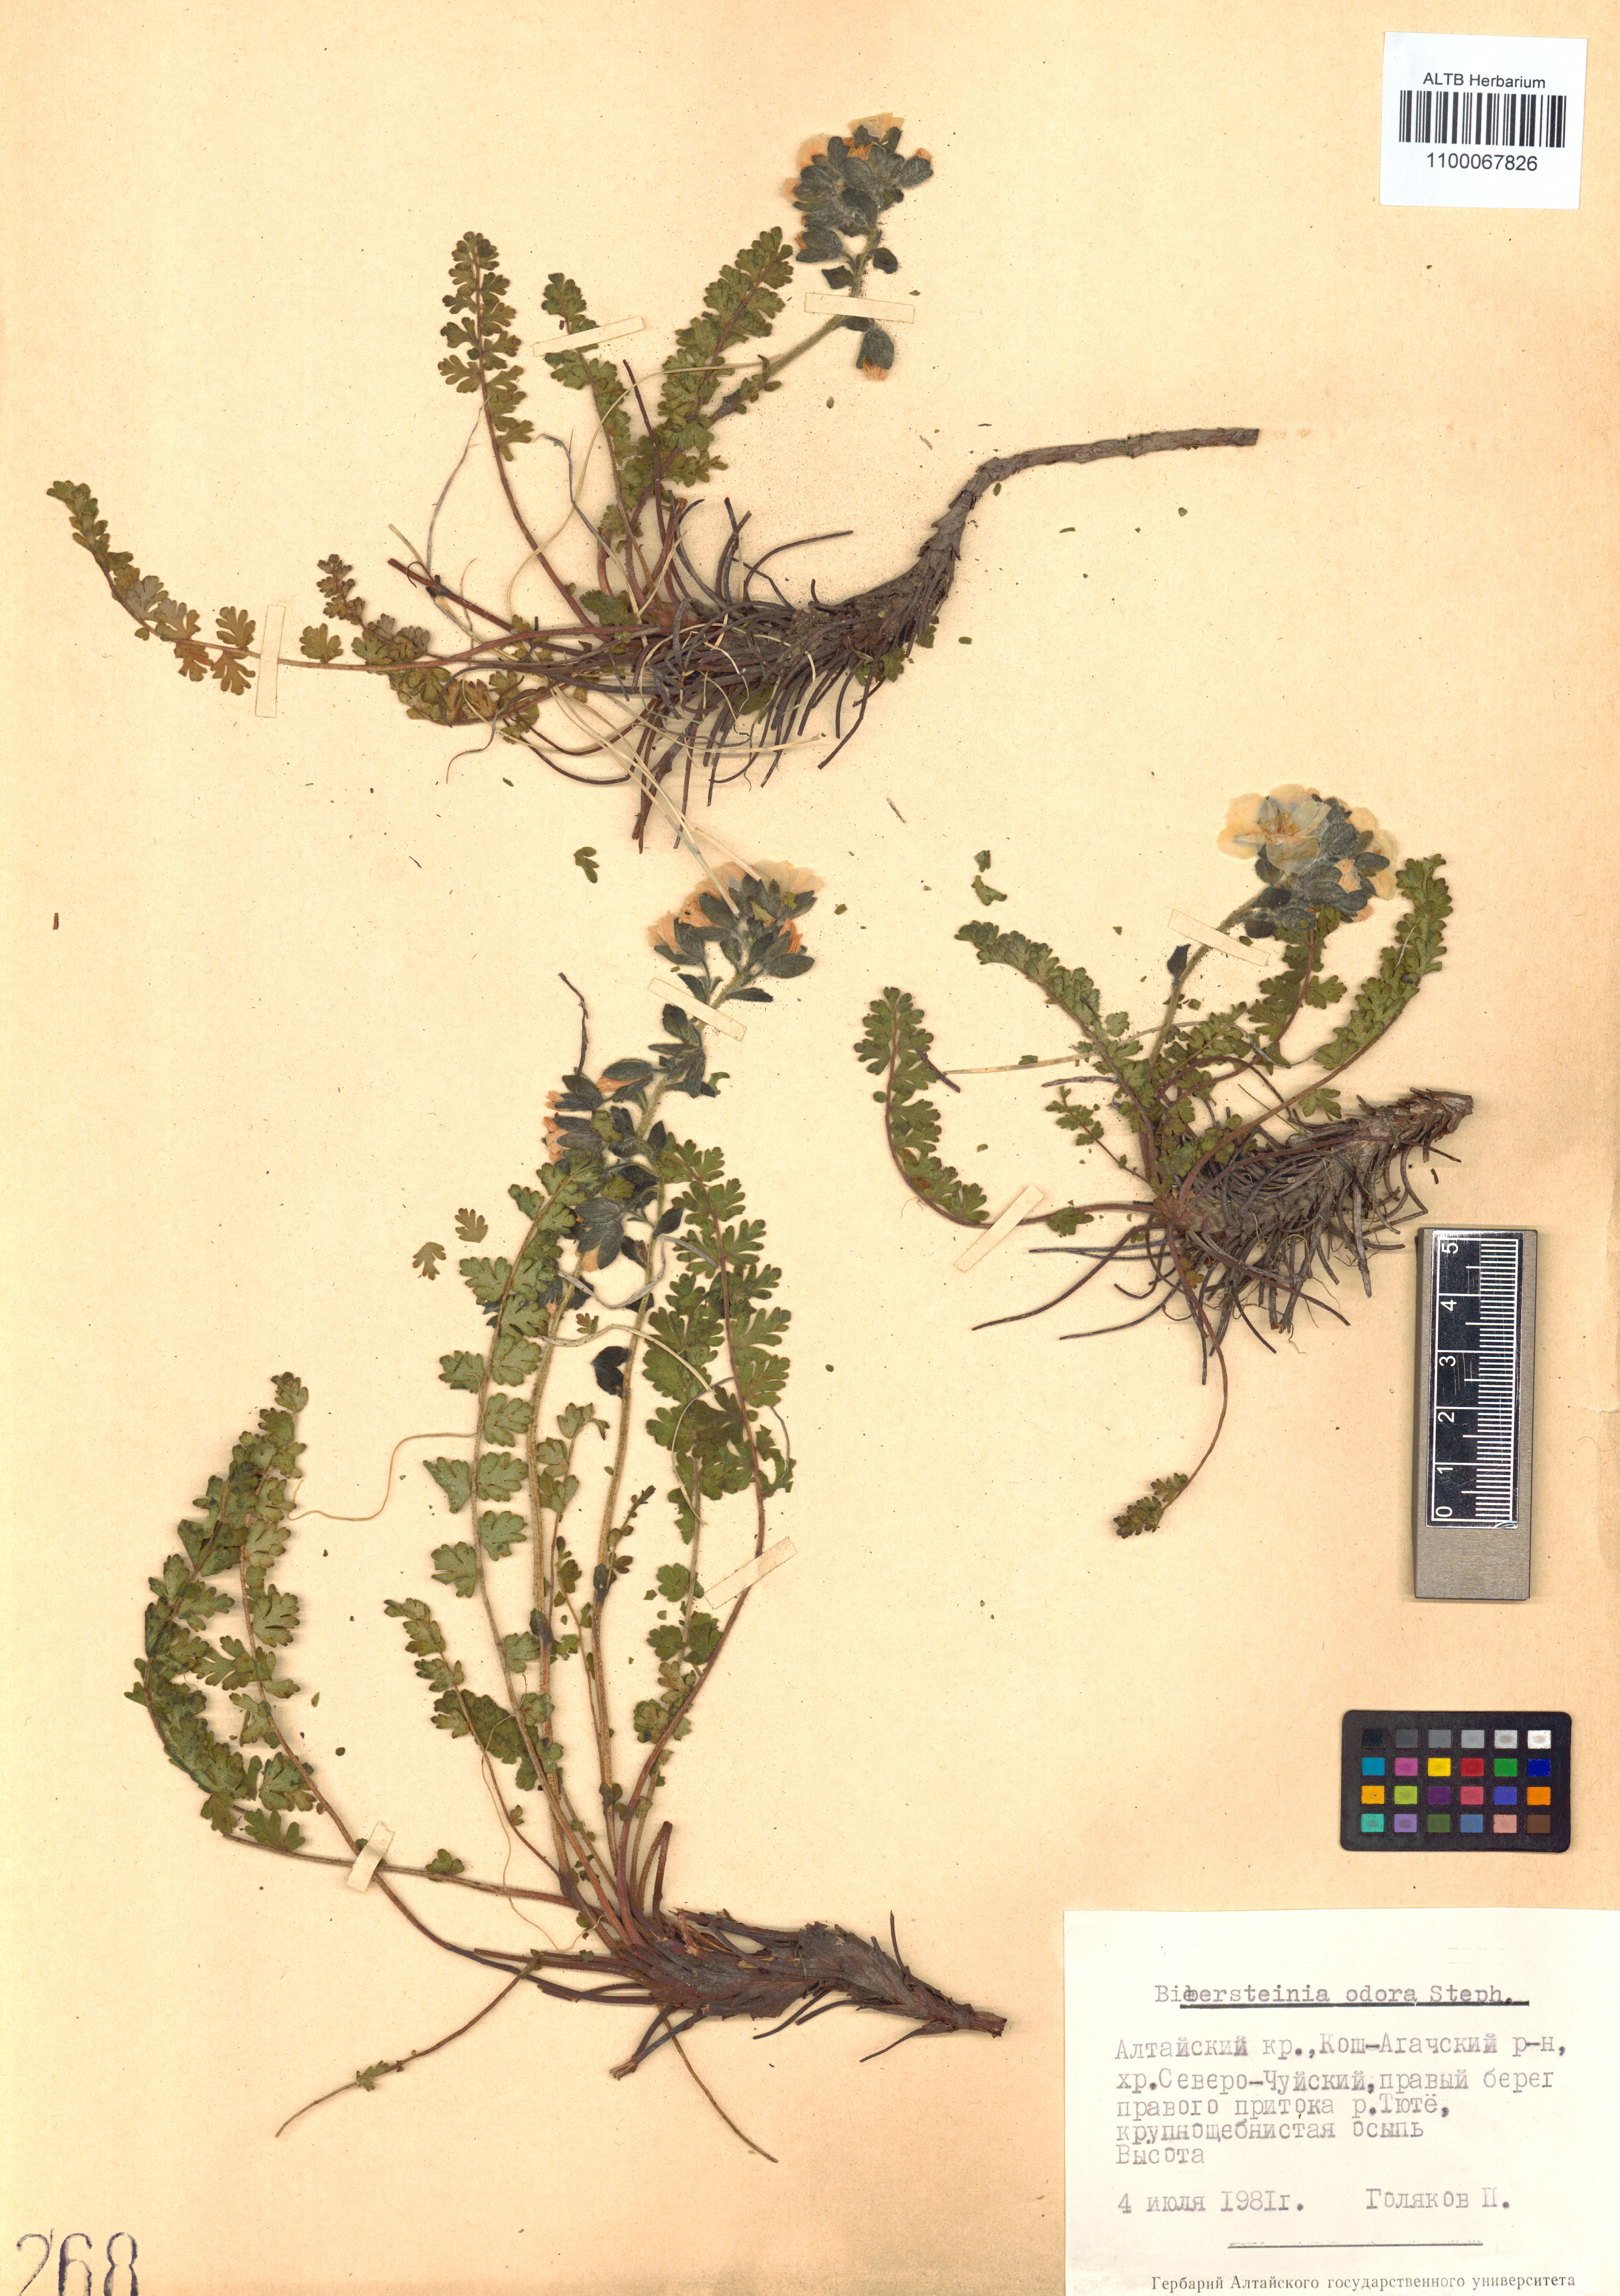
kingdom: Plantae
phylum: Tracheophyta
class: Magnoliopsida
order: Sapindales
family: Biebersteiniaceae
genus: Biebersteinia
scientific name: Biebersteinia odora
